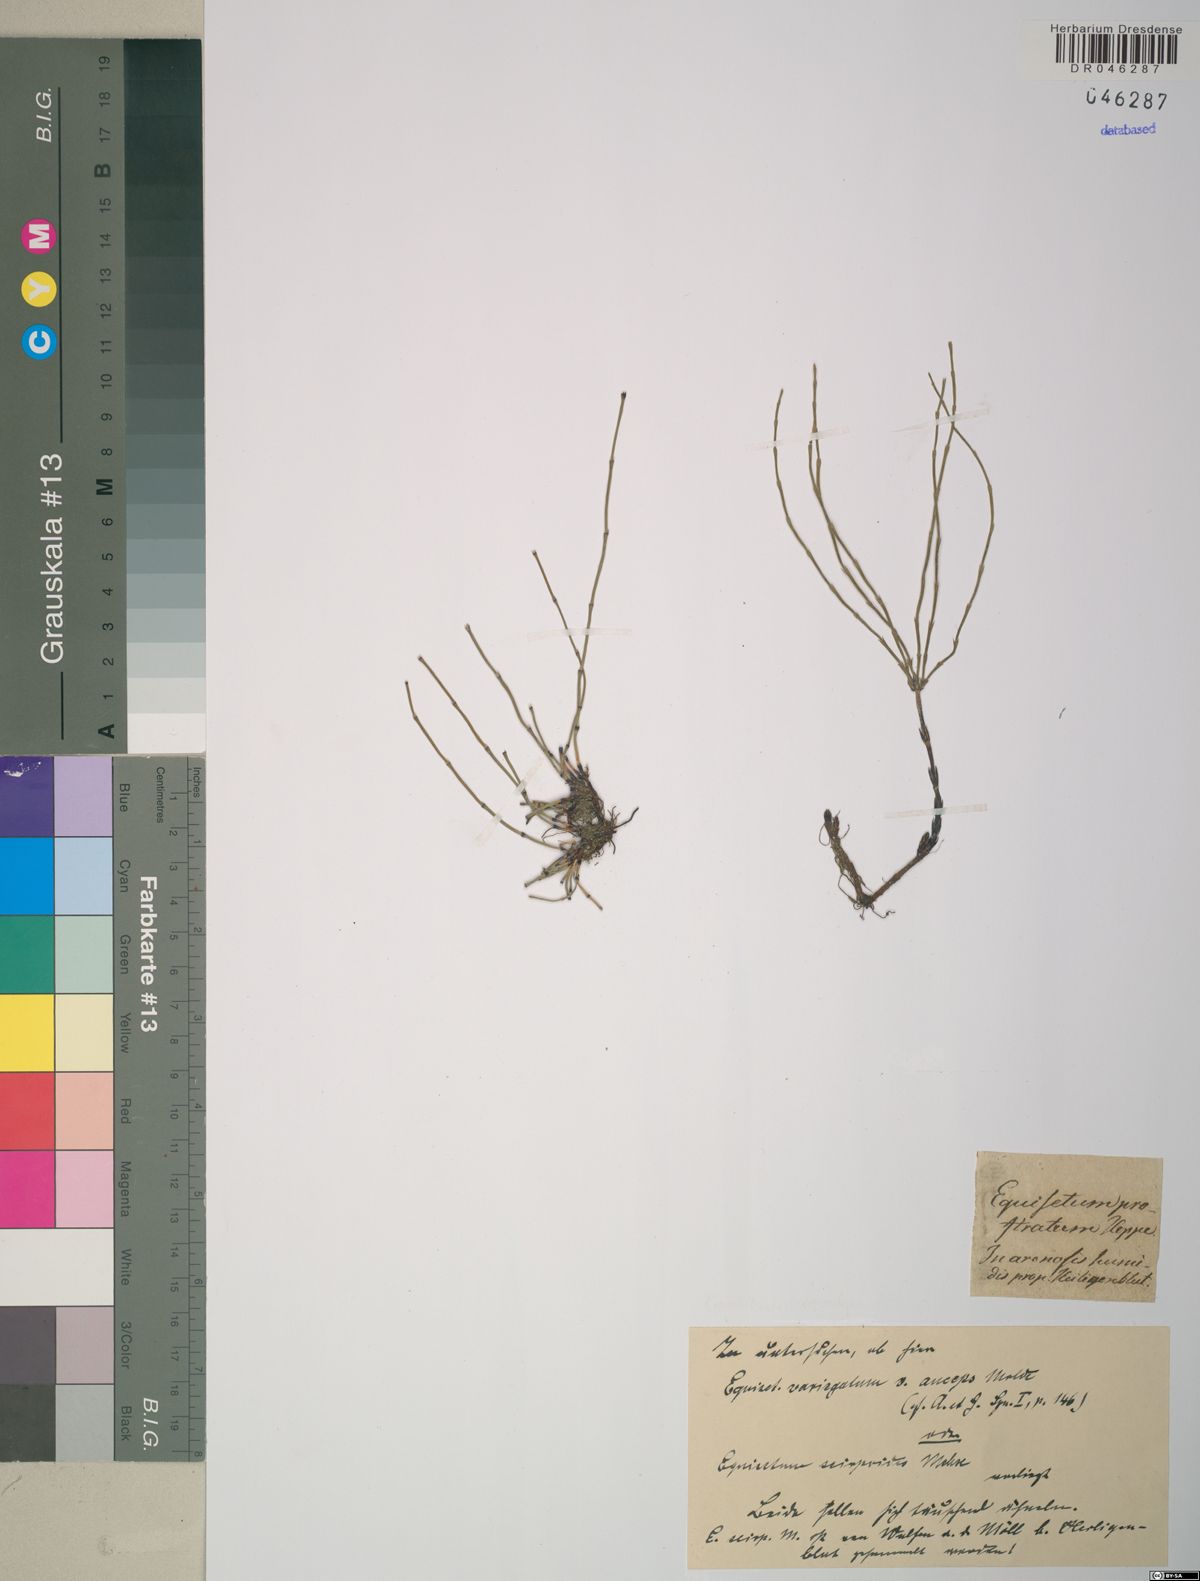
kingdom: Plantae
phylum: Tracheophyta
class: Polypodiopsida
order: Equisetales
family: Equisetaceae
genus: Equisetum
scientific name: Equisetum scirpoides
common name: Delicate horsetail
